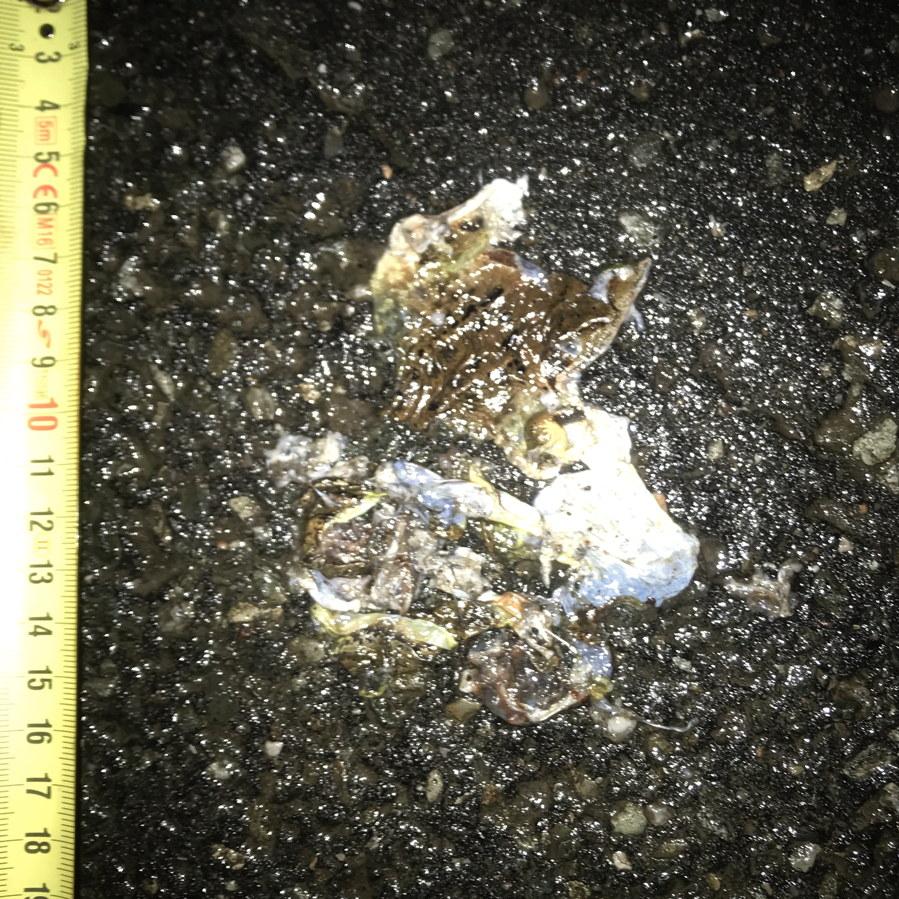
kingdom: Animalia
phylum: Chordata
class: Amphibia
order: Anura
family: Bufonidae
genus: Bufo
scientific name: Bufo bufo
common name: Common toad
